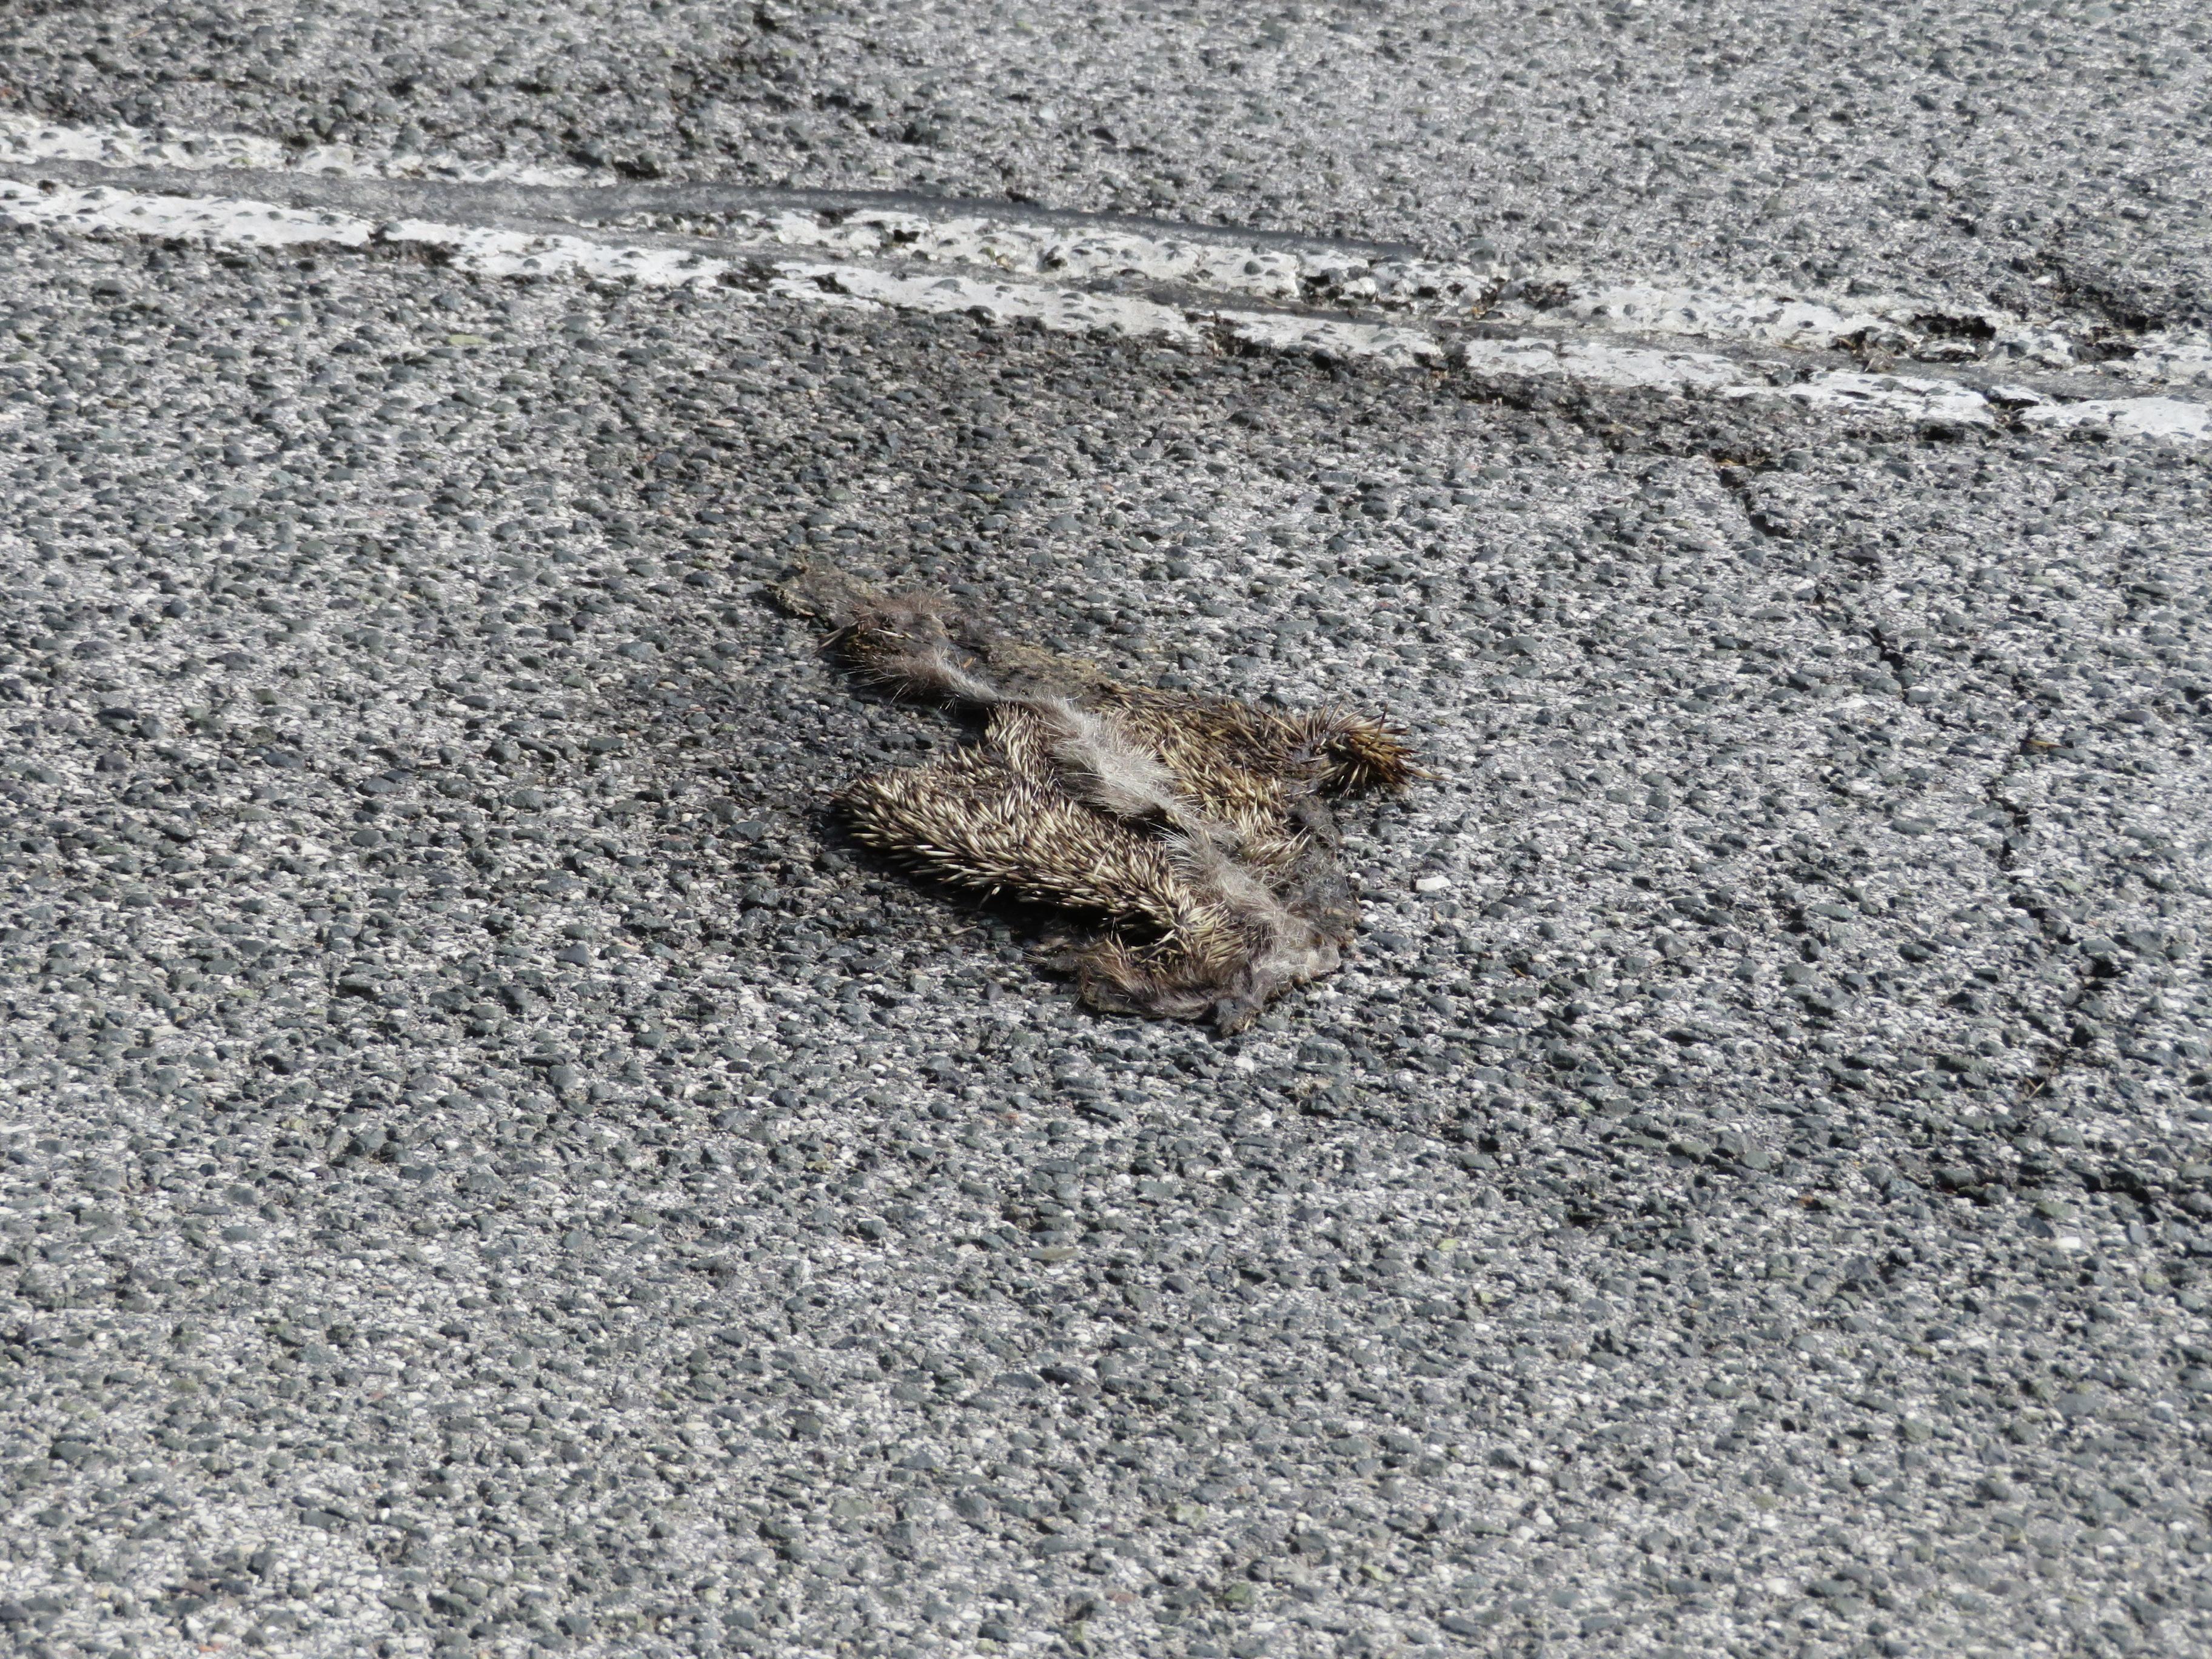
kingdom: Animalia
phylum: Chordata
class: Mammalia
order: Erinaceomorpha
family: Erinaceidae
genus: Erinaceus
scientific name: Erinaceus
